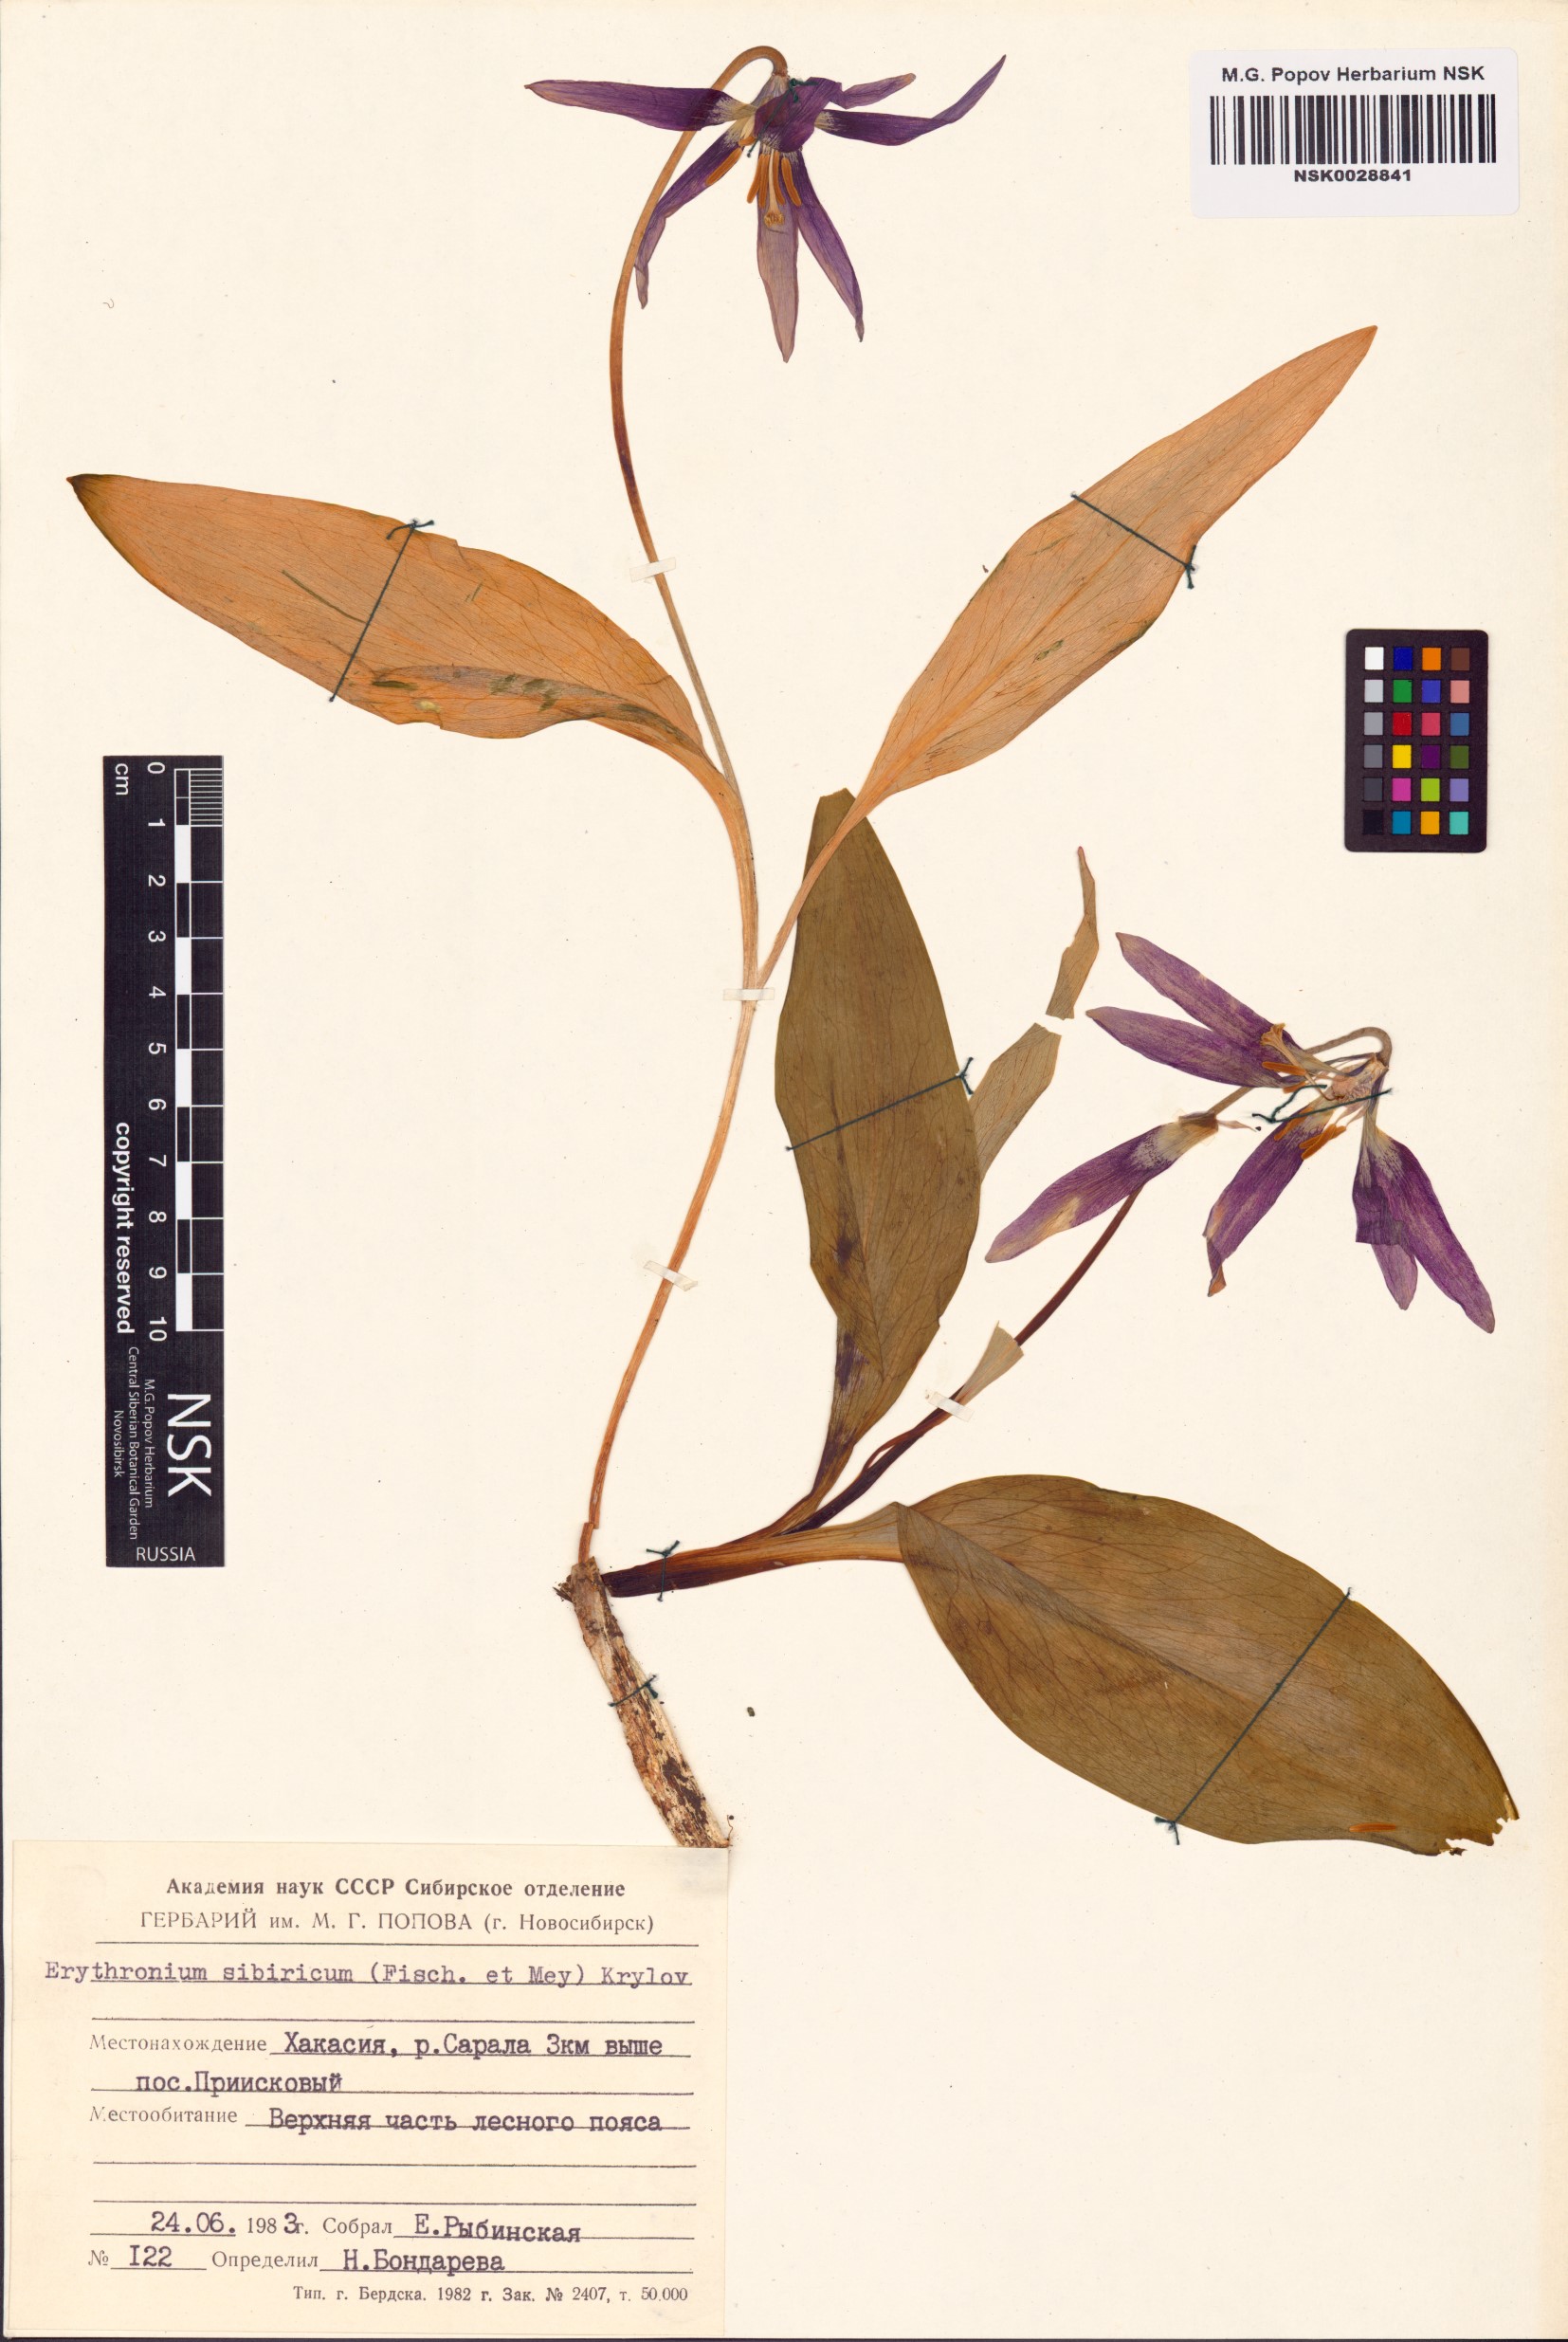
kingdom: Plantae
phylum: Tracheophyta
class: Liliopsida
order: Liliales
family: Liliaceae
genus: Erythronium
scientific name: Erythronium sibiricum
